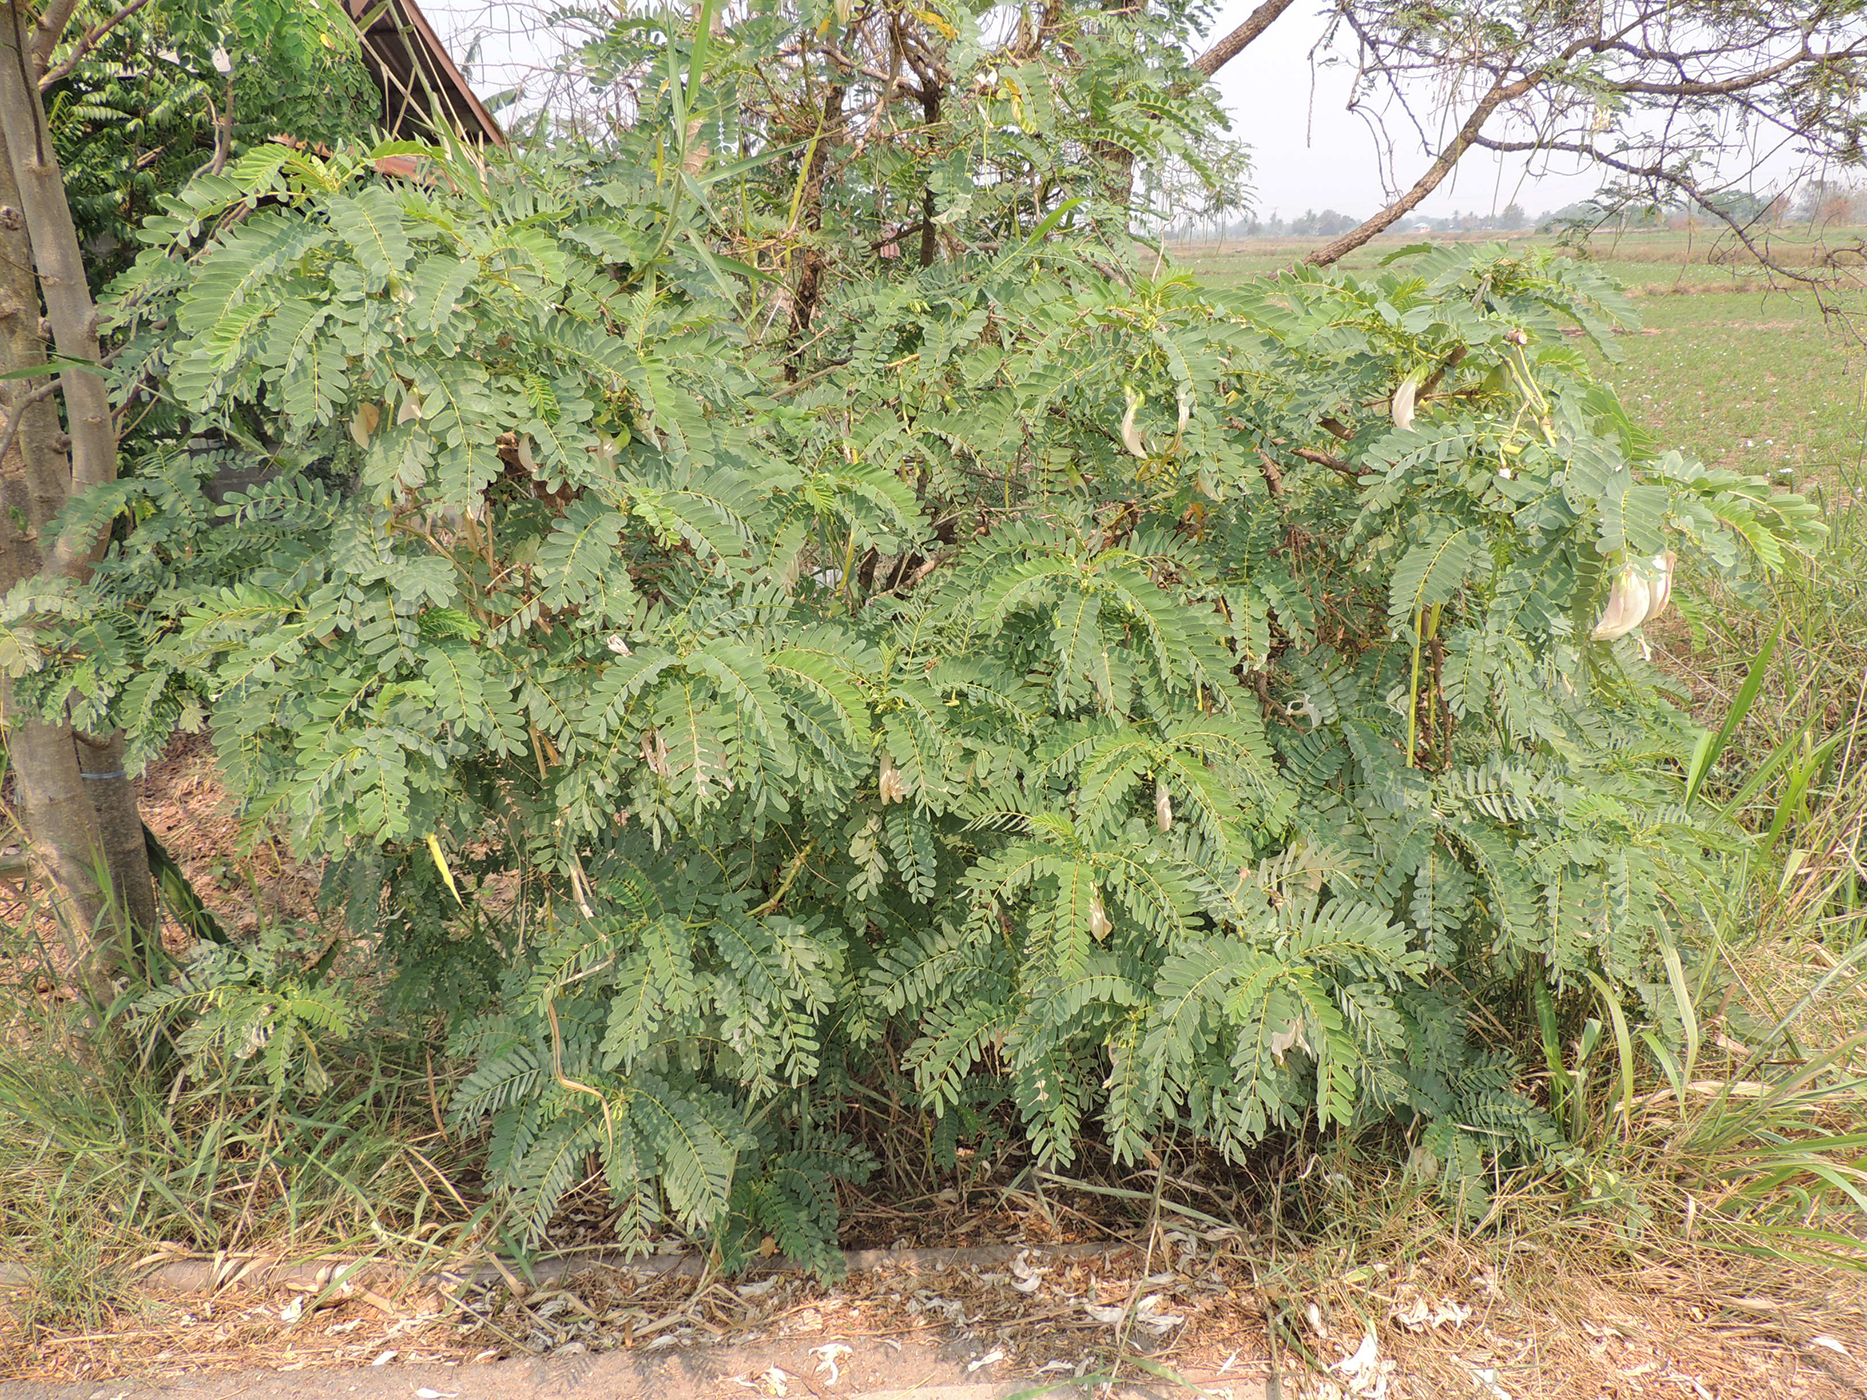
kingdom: Plantae
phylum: Tracheophyta
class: Magnoliopsida
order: Fabales
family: Fabaceae
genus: Sesbania
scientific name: Sesbania grandiflora
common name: Vegetable-hummingbird
